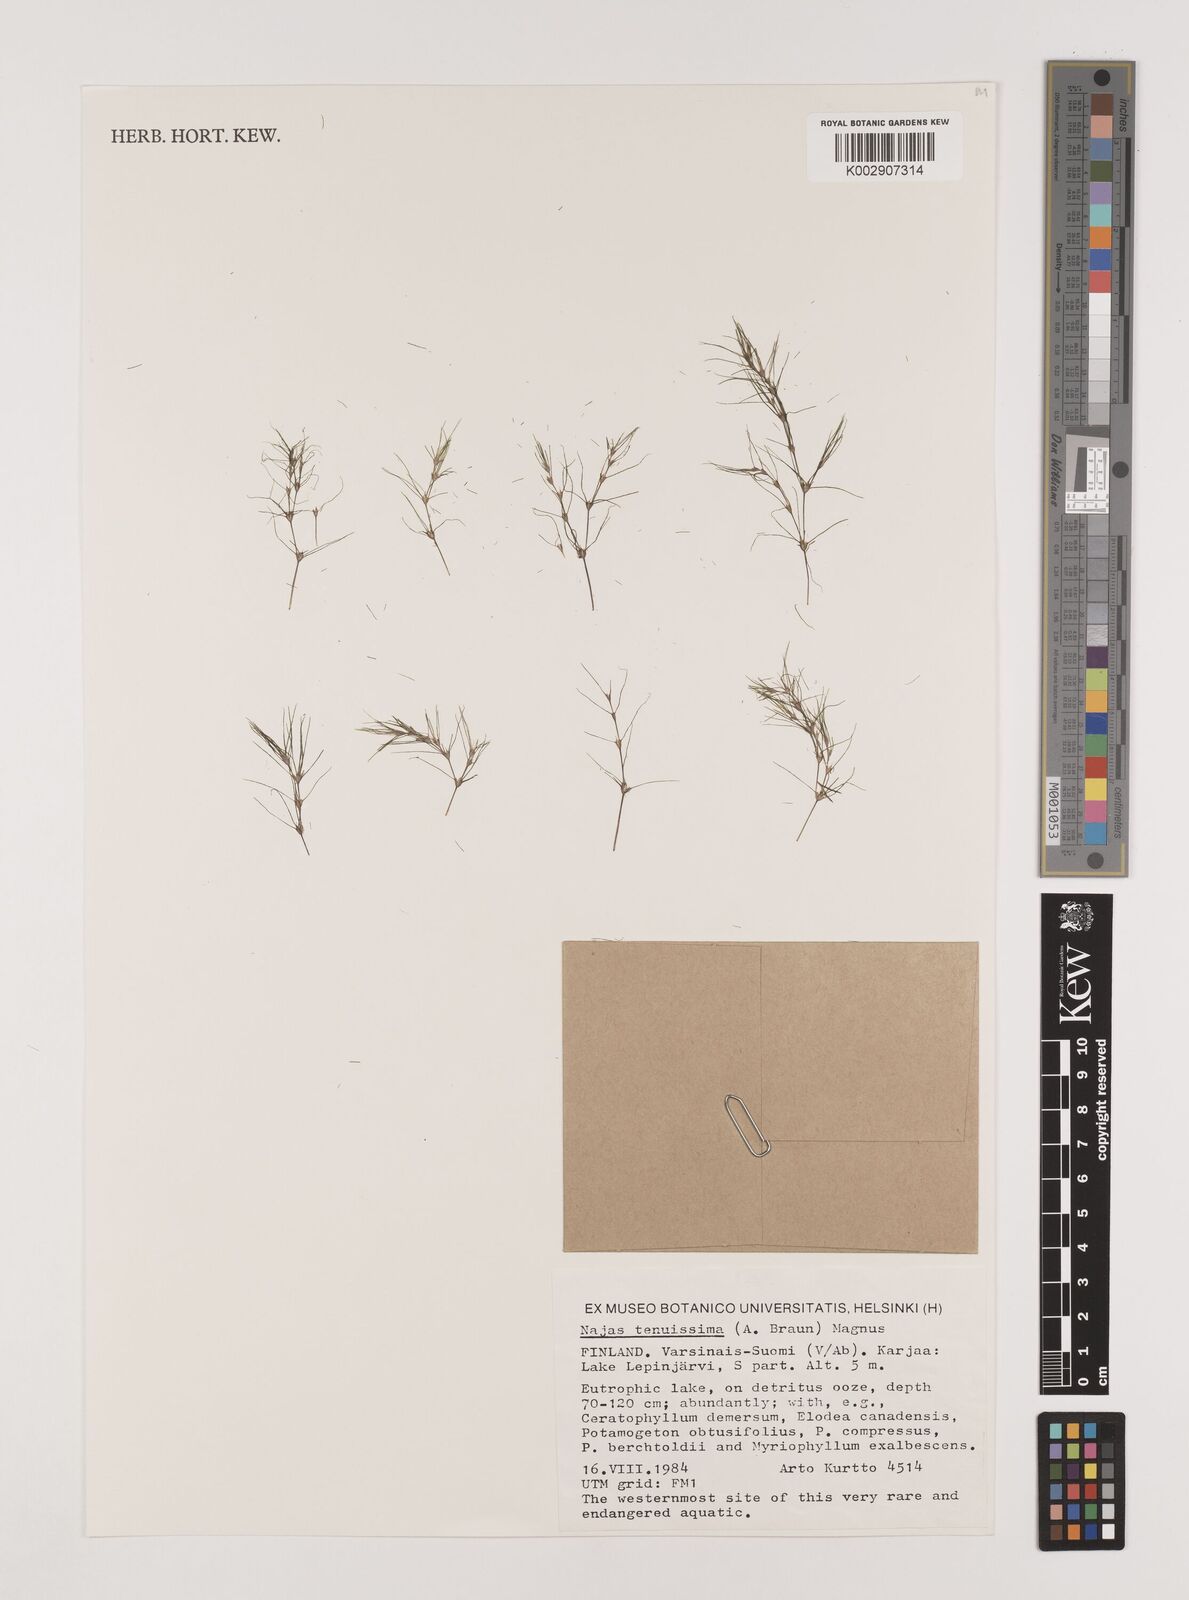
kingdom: Plantae
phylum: Tracheophyta
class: Liliopsida
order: Alismatales
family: Hydrocharitaceae
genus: Najas
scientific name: Najas tenuissima
